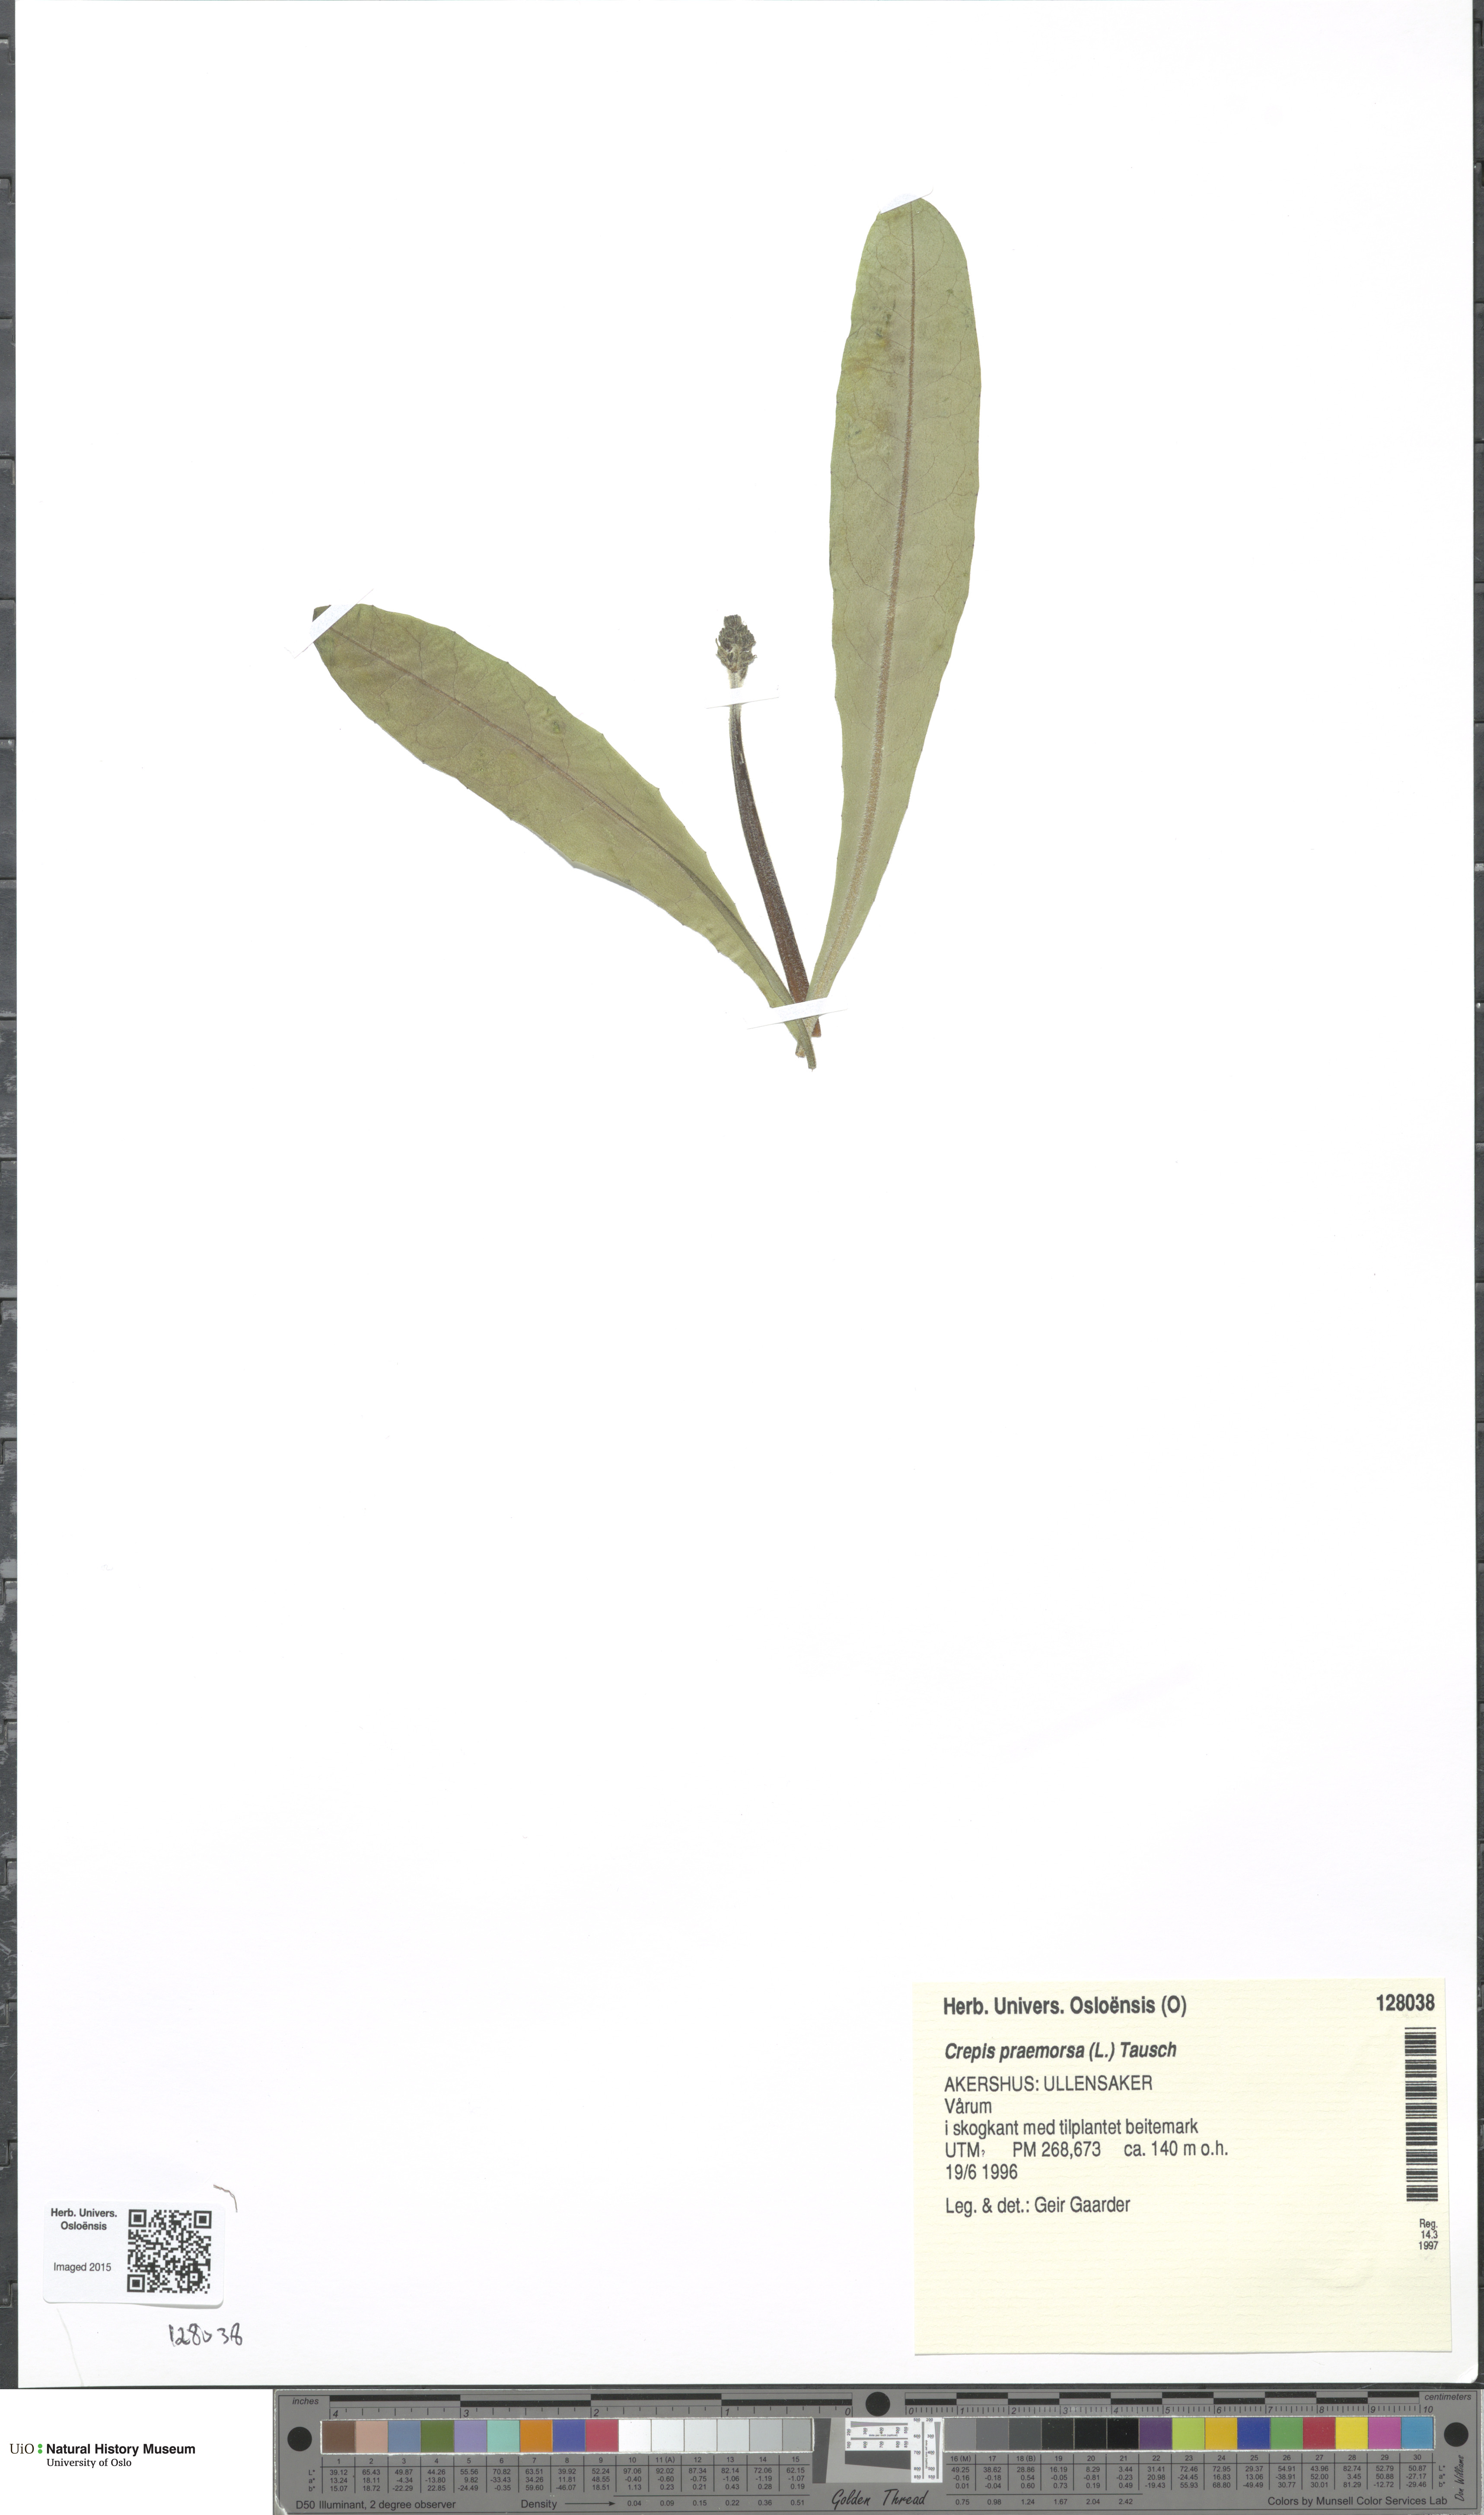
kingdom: Plantae
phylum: Tracheophyta
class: Magnoliopsida
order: Asterales
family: Asteraceae
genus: Crepis
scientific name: Crepis praemorsa
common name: Leafless hawk's-beard
